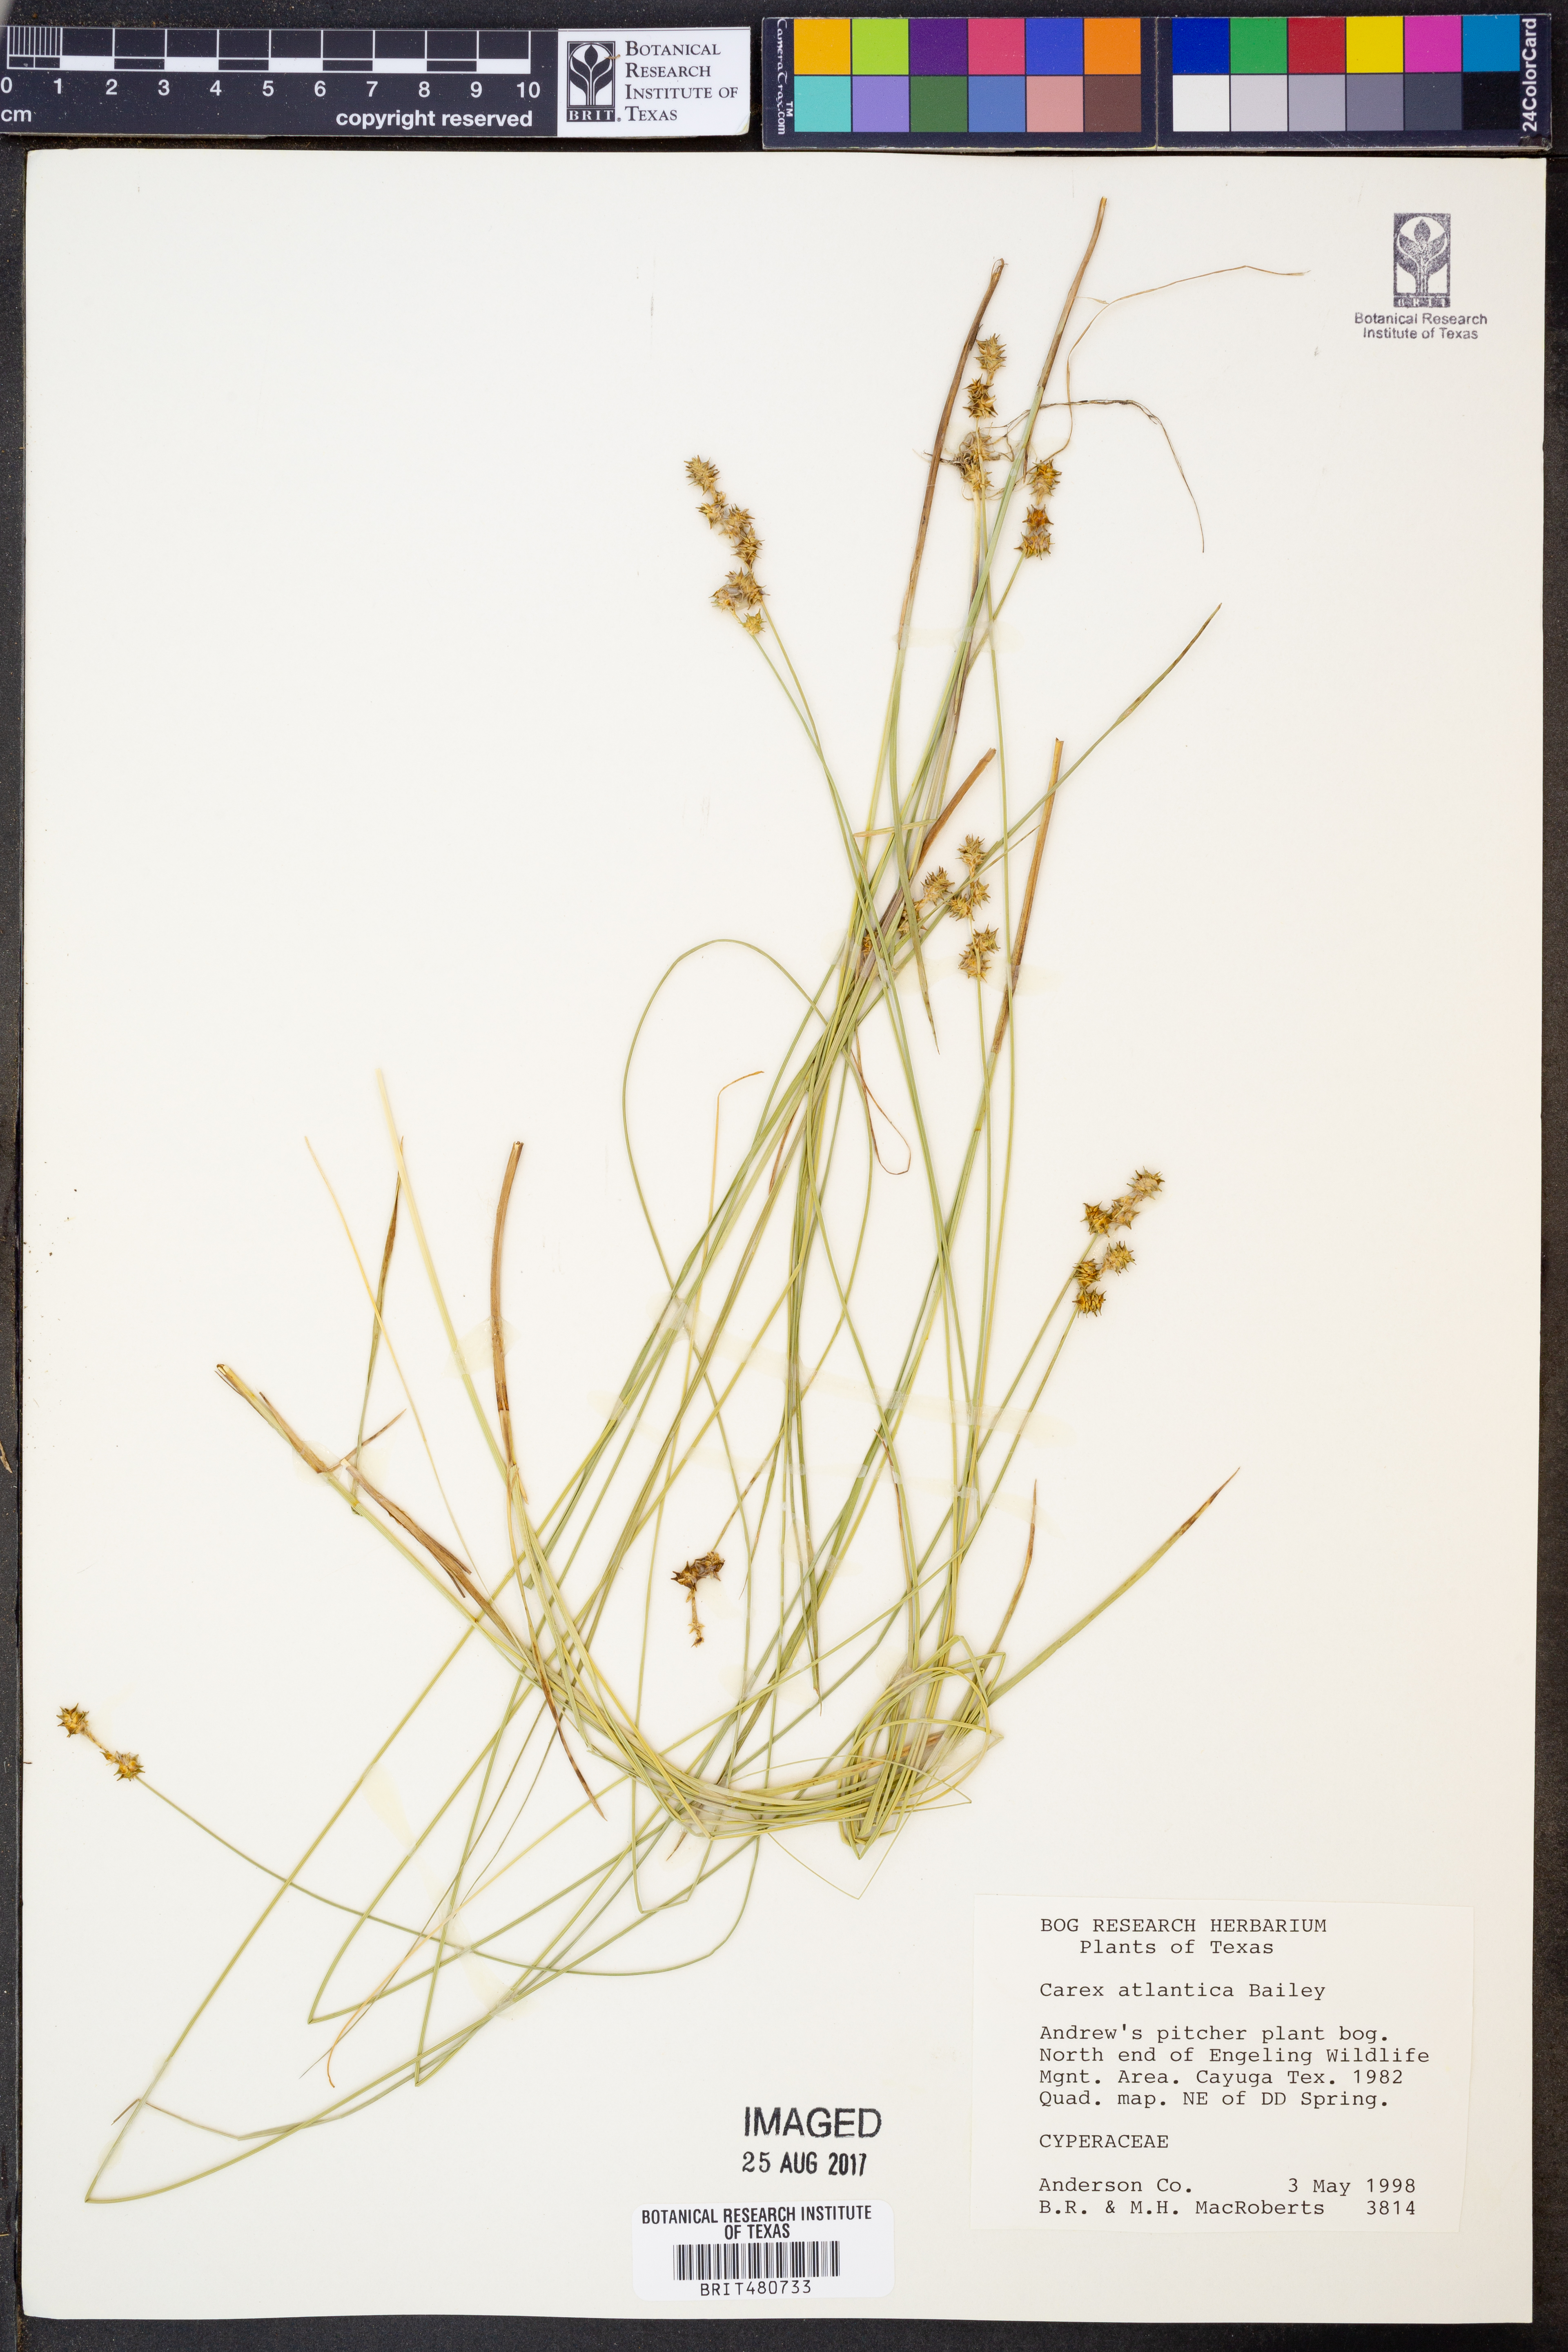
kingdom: Plantae
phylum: Tracheophyta
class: Liliopsida
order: Poales
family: Cyperaceae
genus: Carex
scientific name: Carex atlantica
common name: Atlantic sedge
